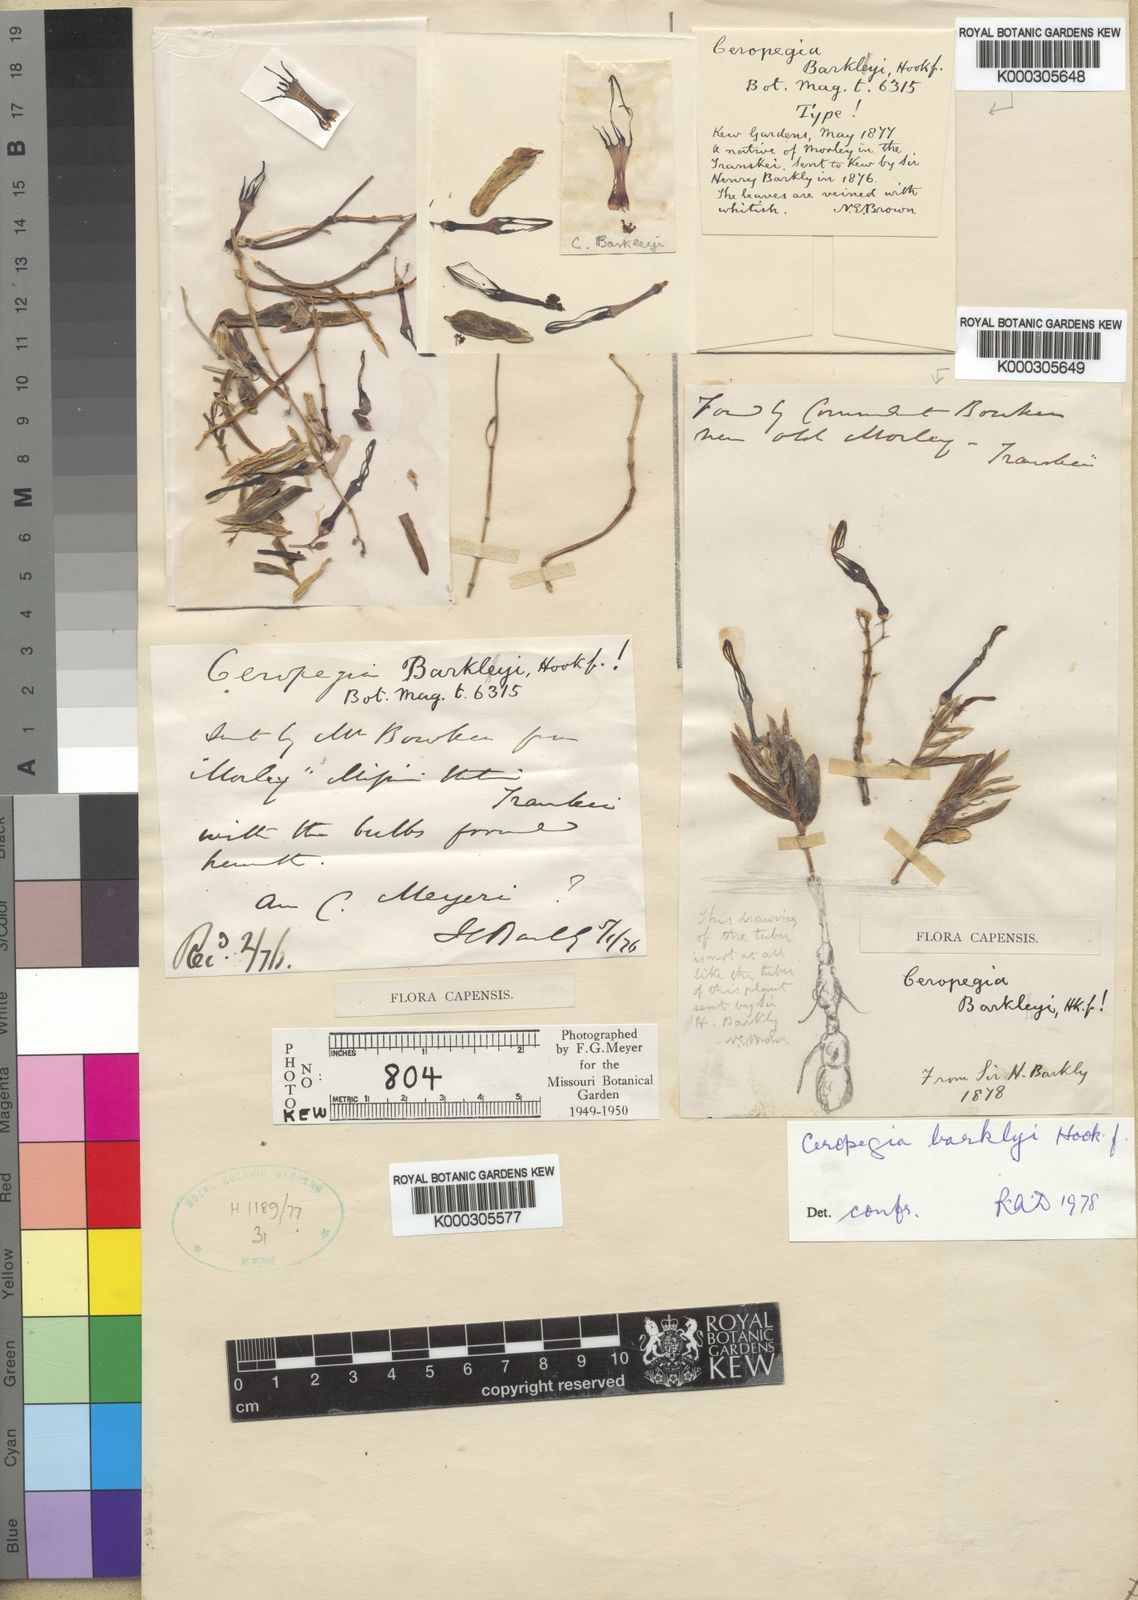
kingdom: Plantae
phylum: Tracheophyta
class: Magnoliopsida
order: Gentianales
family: Apocynaceae
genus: Ceropegia
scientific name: Ceropegia africana
